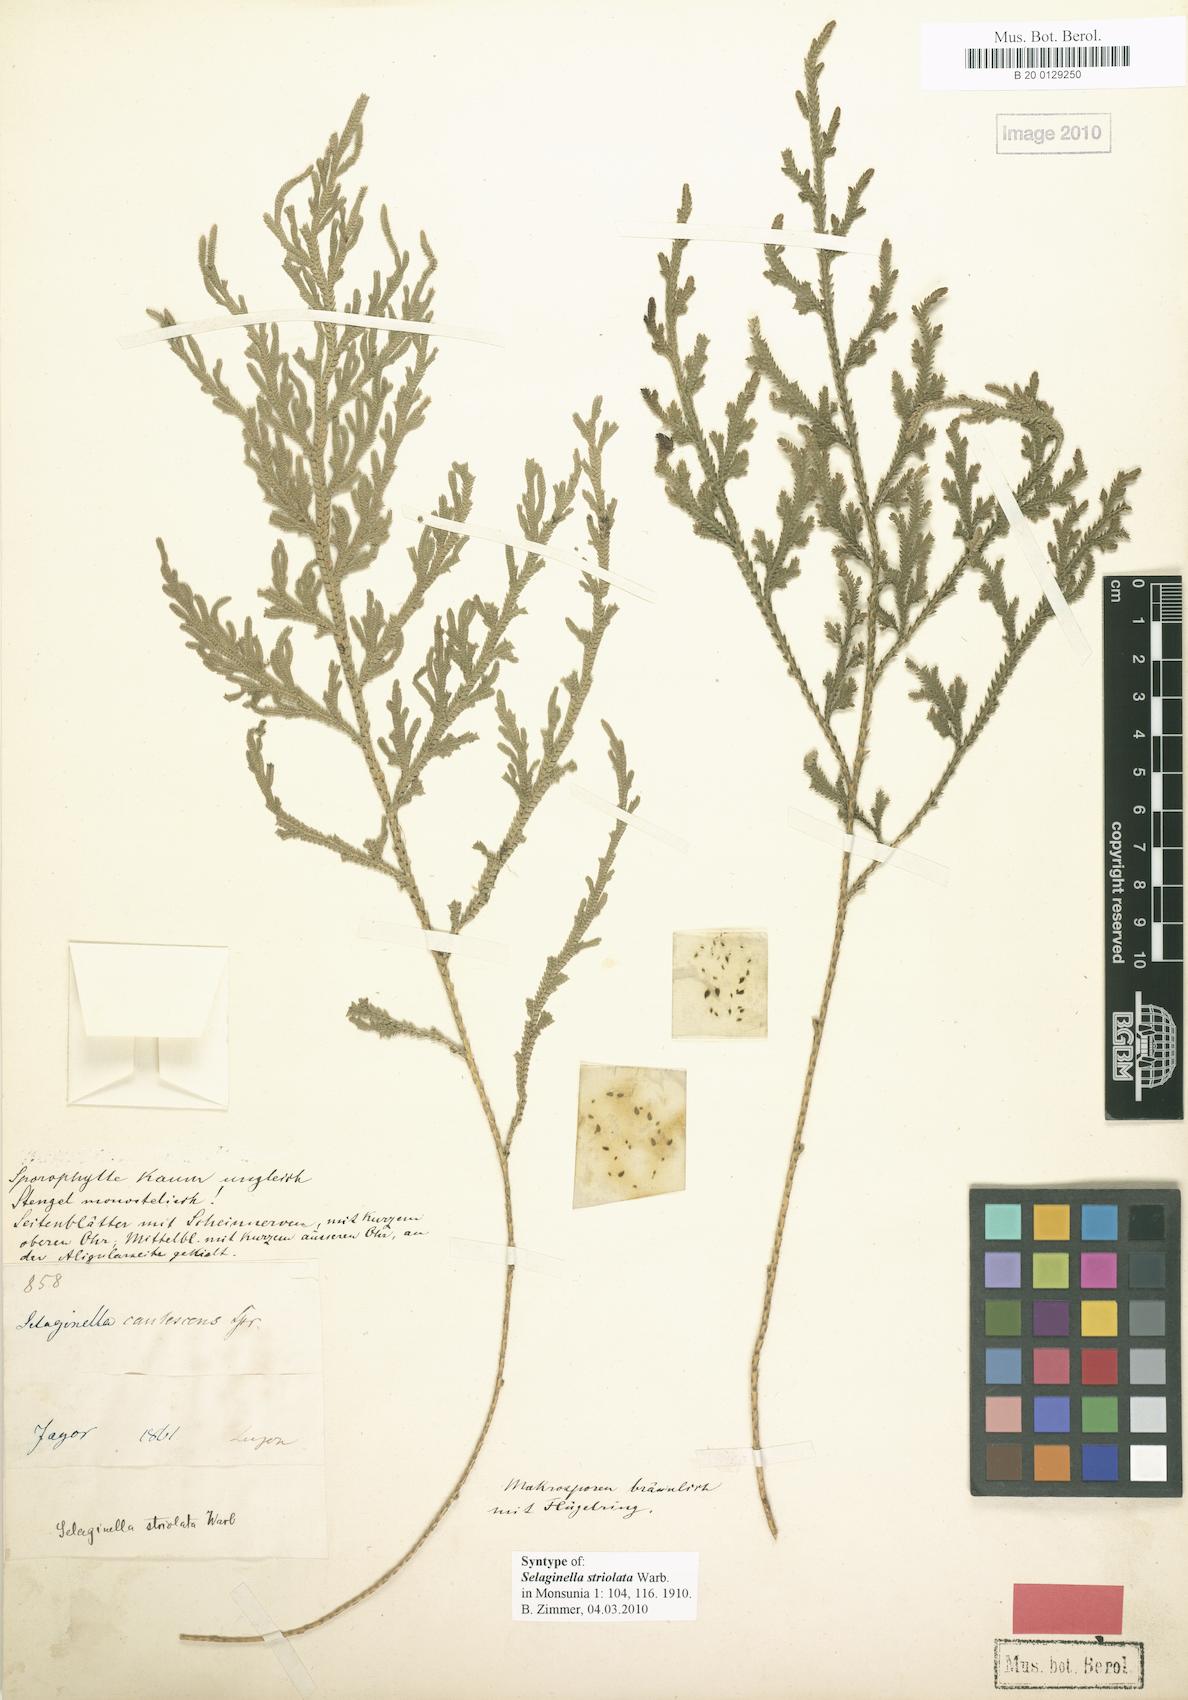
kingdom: Plantae
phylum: Tracheophyta
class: Lycopodiopsida
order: Selaginellales
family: Selaginellaceae
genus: Selaginella
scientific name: Selaginella involvens
